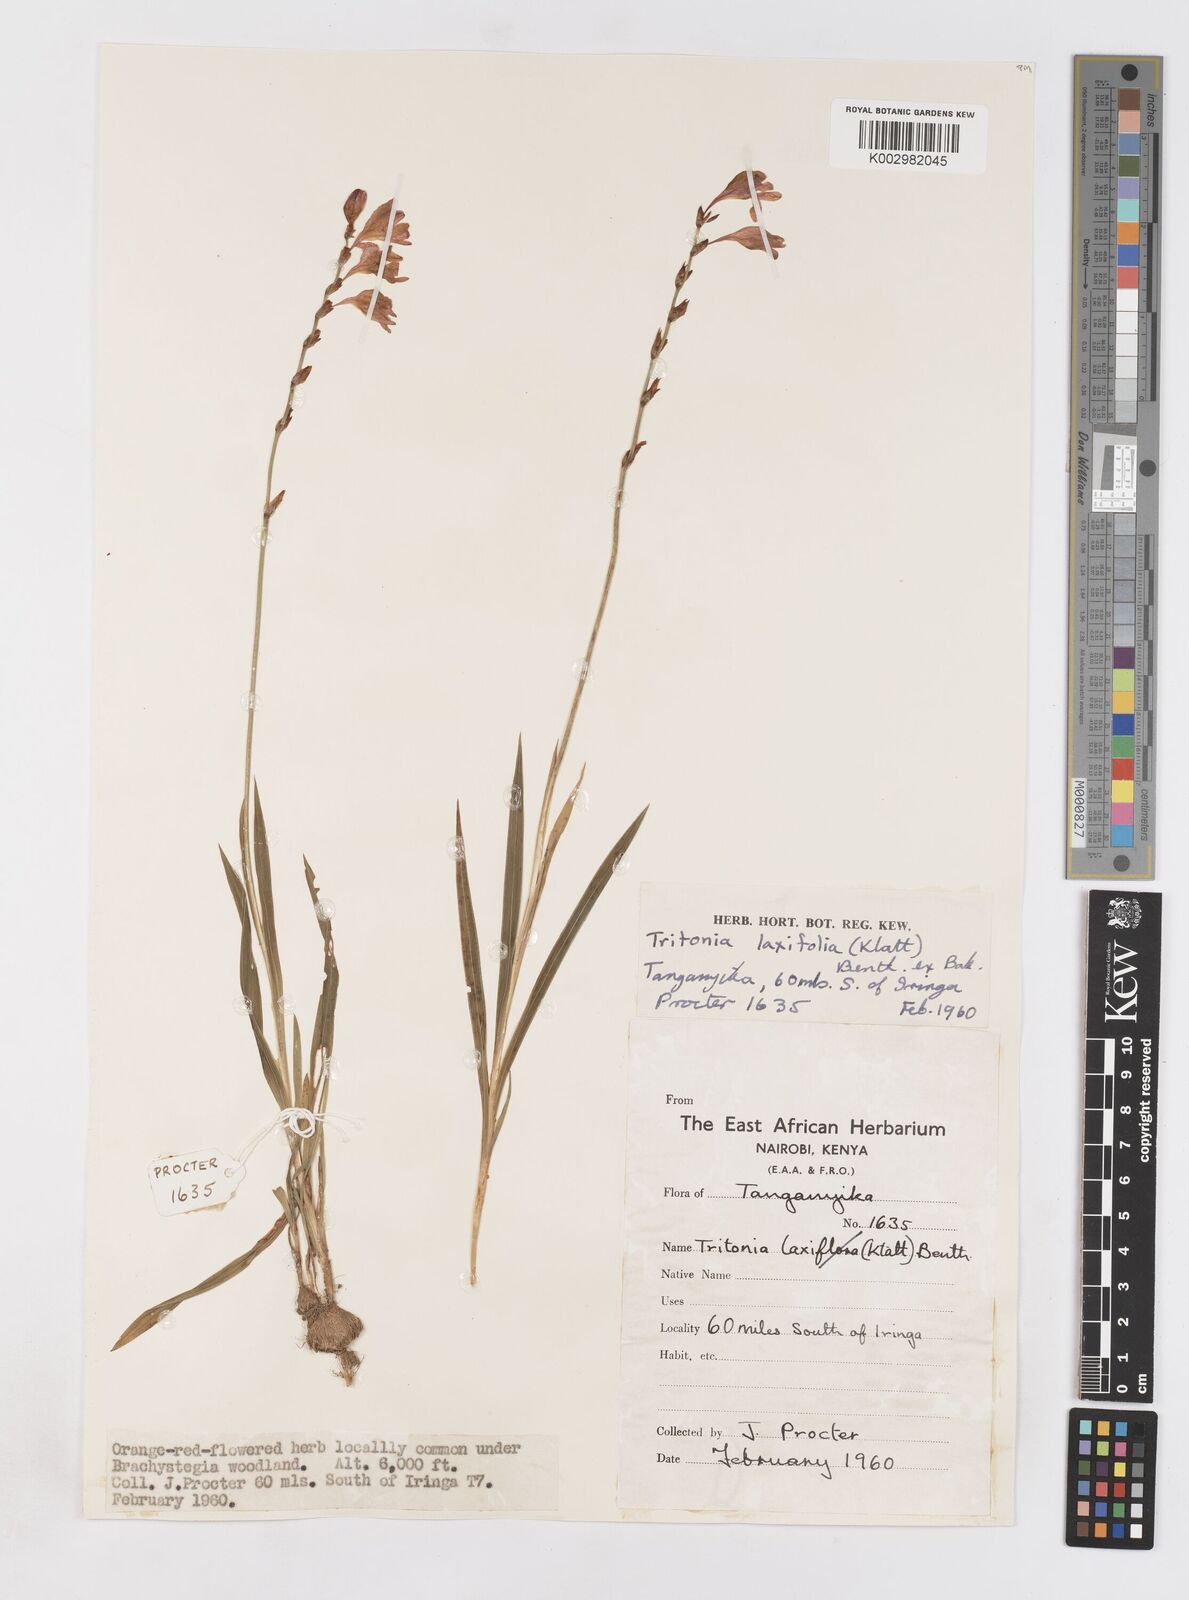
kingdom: Plantae
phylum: Tracheophyta
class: Liliopsida
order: Asparagales
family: Iridaceae
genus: Tritonia
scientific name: Tritonia laxifolia
